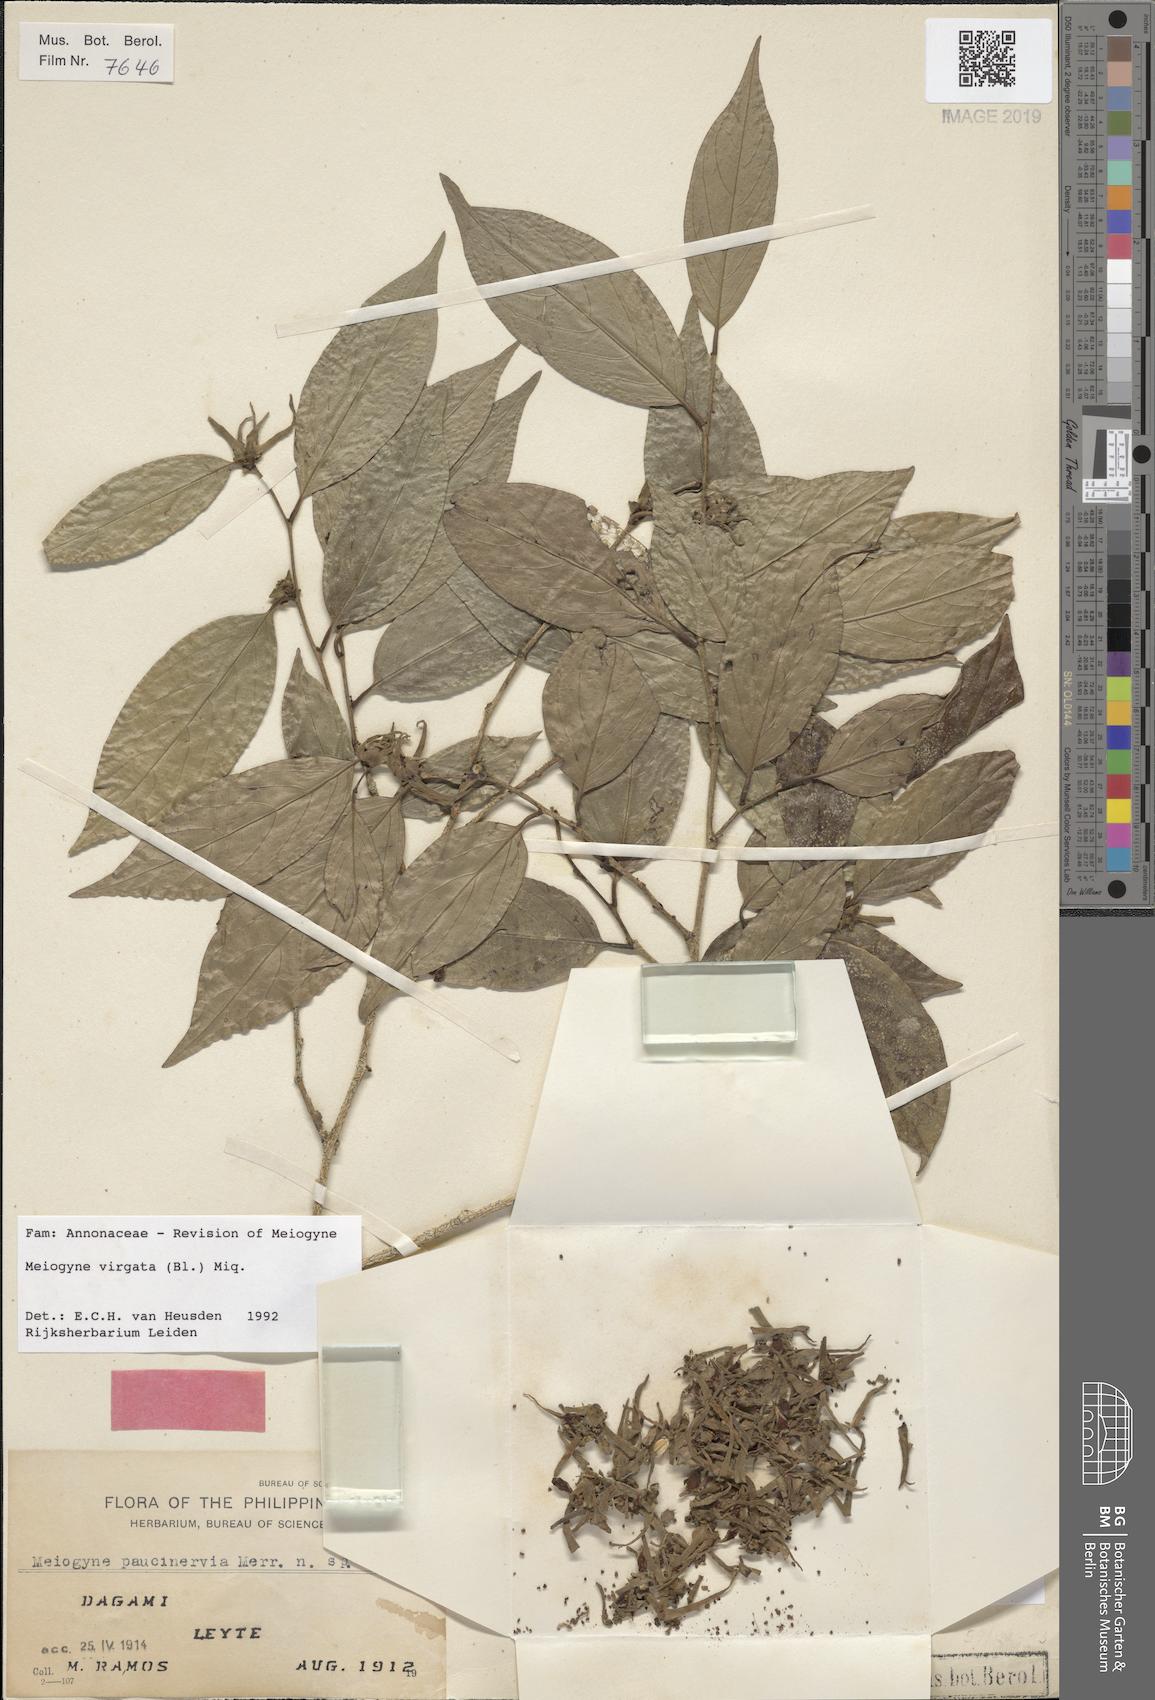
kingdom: Plantae
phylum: Tracheophyta
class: Magnoliopsida
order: Magnoliales
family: Annonaceae
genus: Meiogyne
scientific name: Meiogyne virgata
